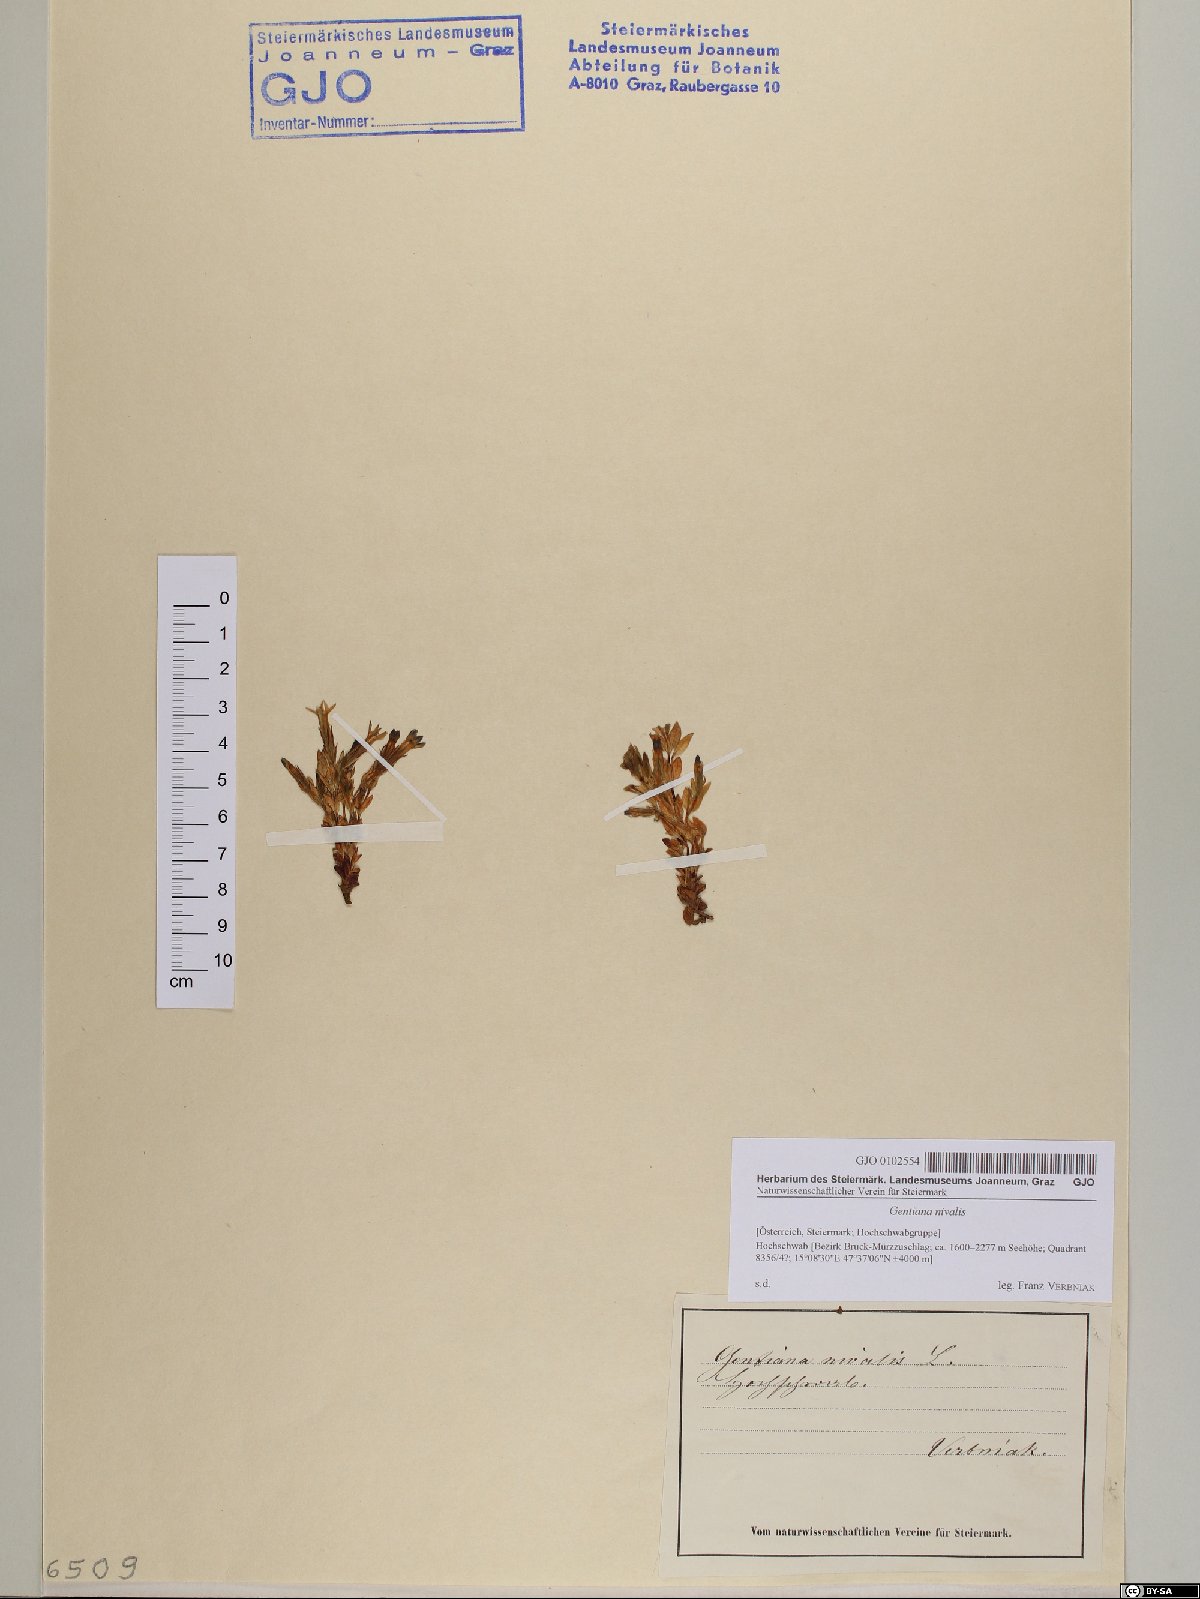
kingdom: Plantae
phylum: Tracheophyta
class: Magnoliopsida
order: Gentianales
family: Gentianaceae
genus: Gentiana
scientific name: Gentiana nivalis
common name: Alpine gentian
